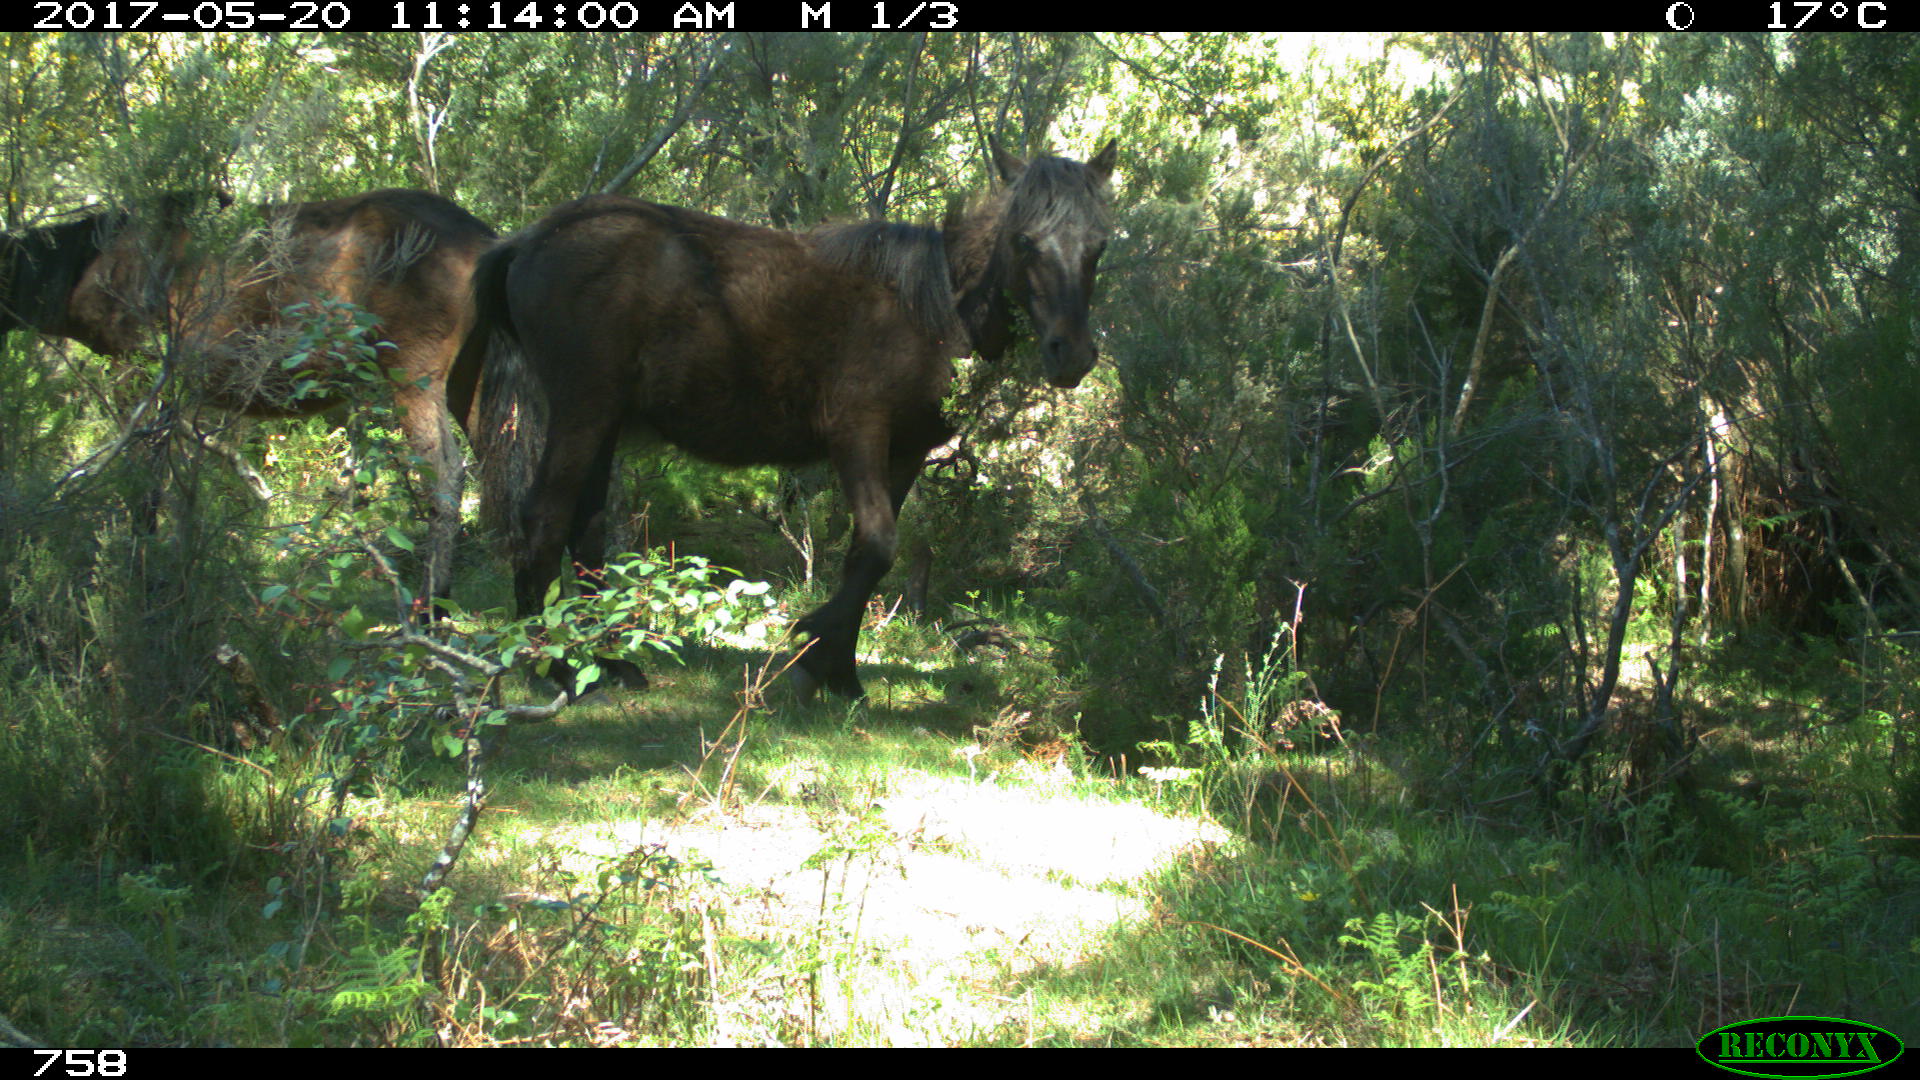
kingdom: Animalia
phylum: Chordata
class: Mammalia
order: Perissodactyla
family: Equidae
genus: Equus
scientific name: Equus caballus
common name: Horse
